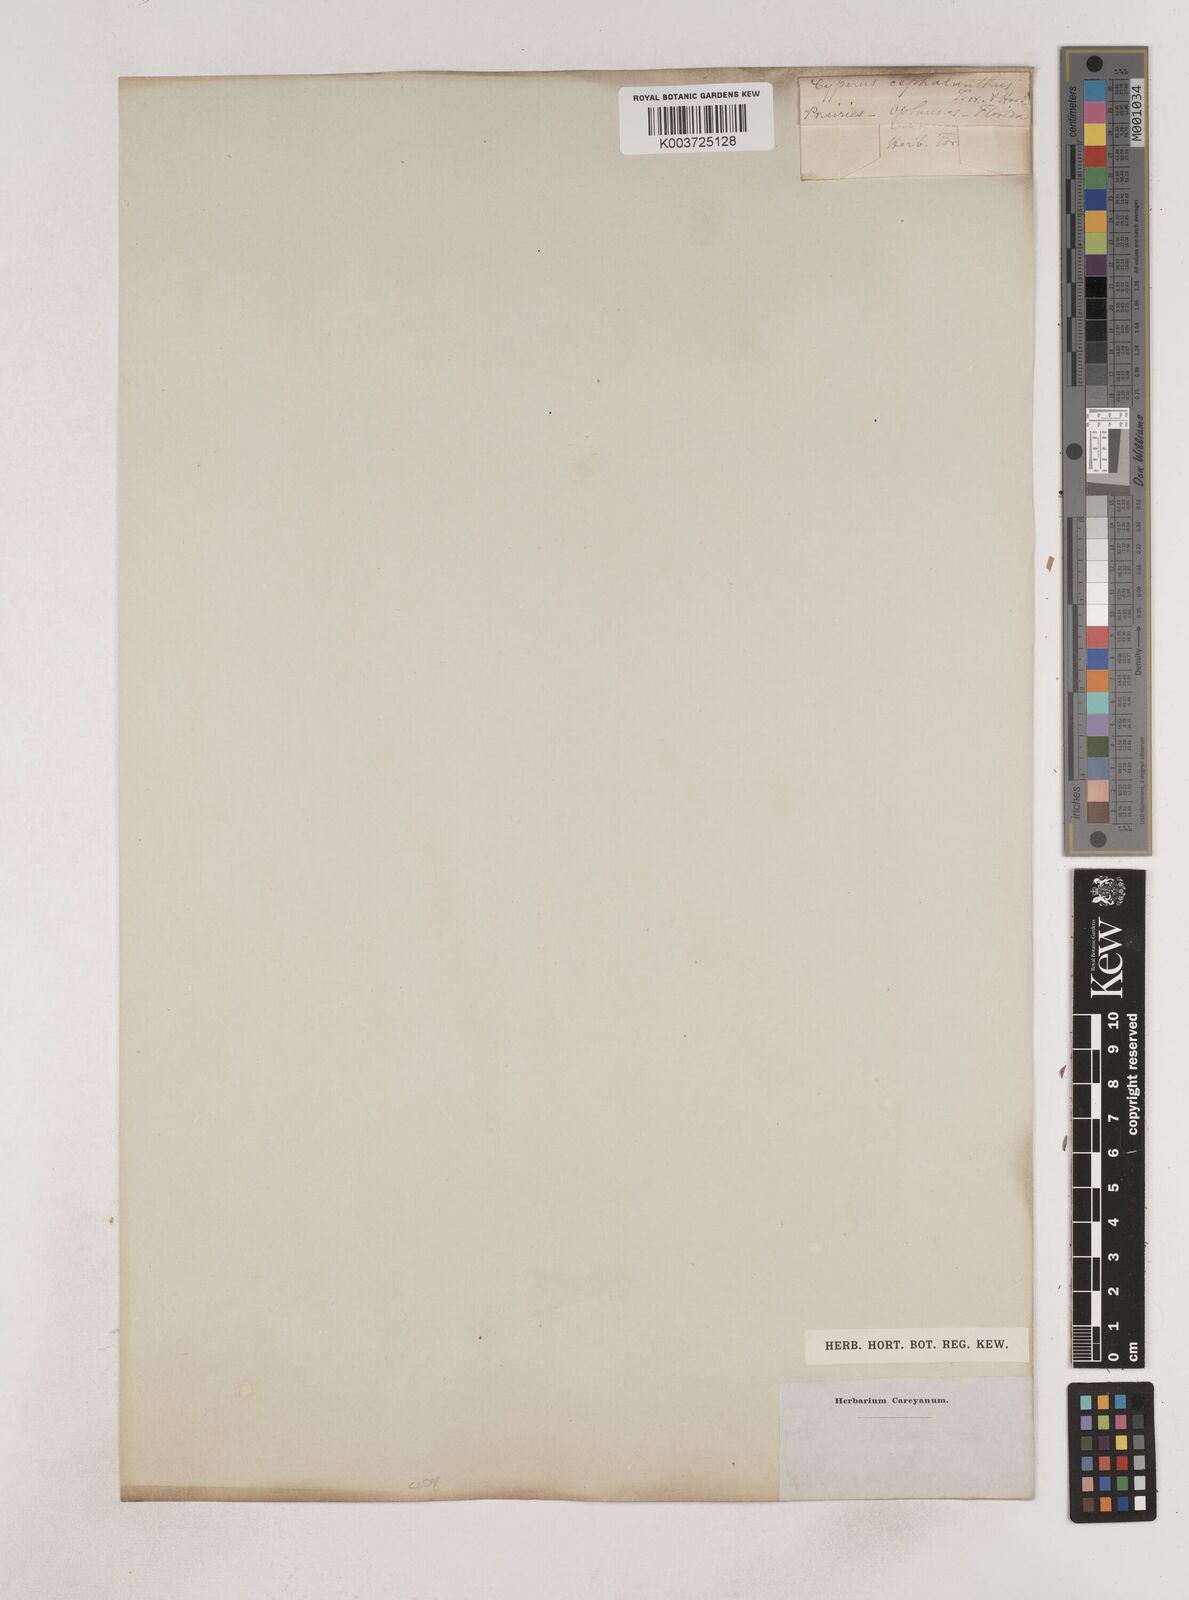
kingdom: Plantae
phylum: Tracheophyta
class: Liliopsida
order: Poales
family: Cyperaceae
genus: Cyperus
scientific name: Cyperus cephalanthus
